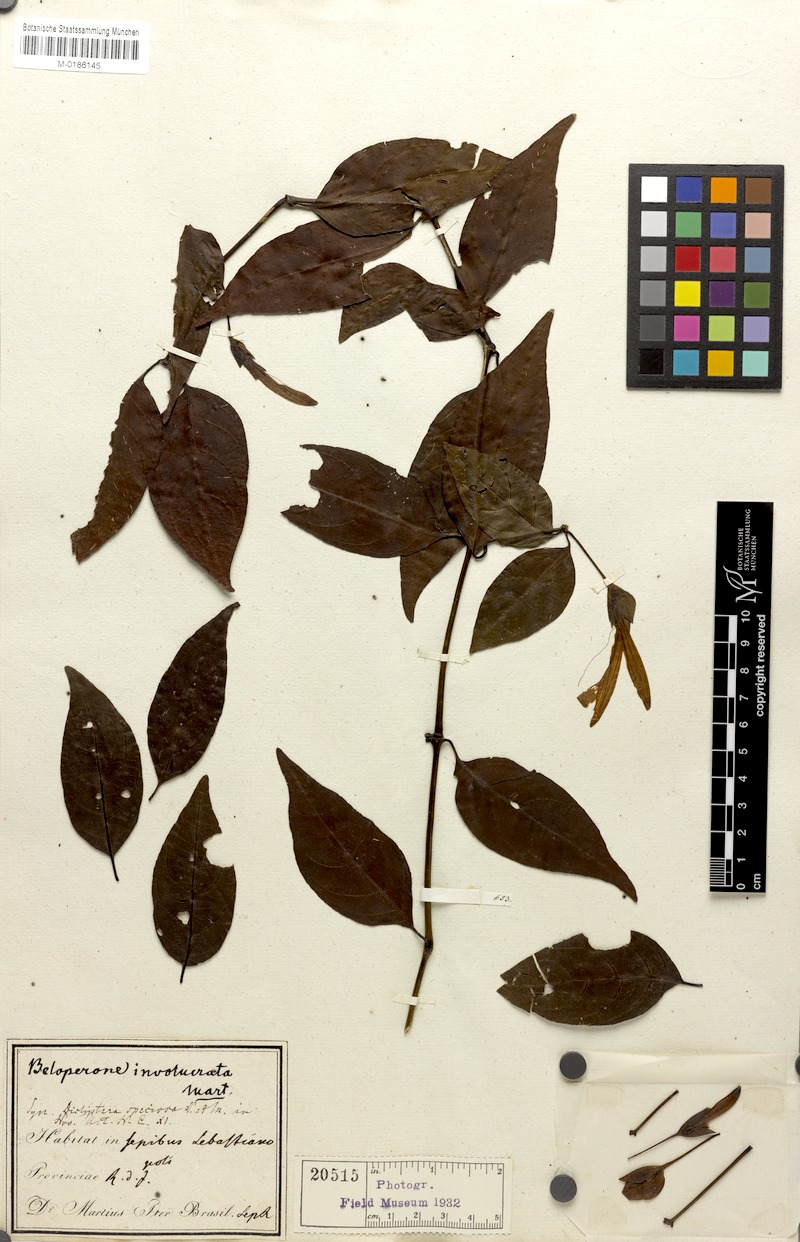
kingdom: Plantae
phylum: Tracheophyta
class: Magnoliopsida
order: Lamiales
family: Acanthaceae
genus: Justicia
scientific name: Justicia involucrata
